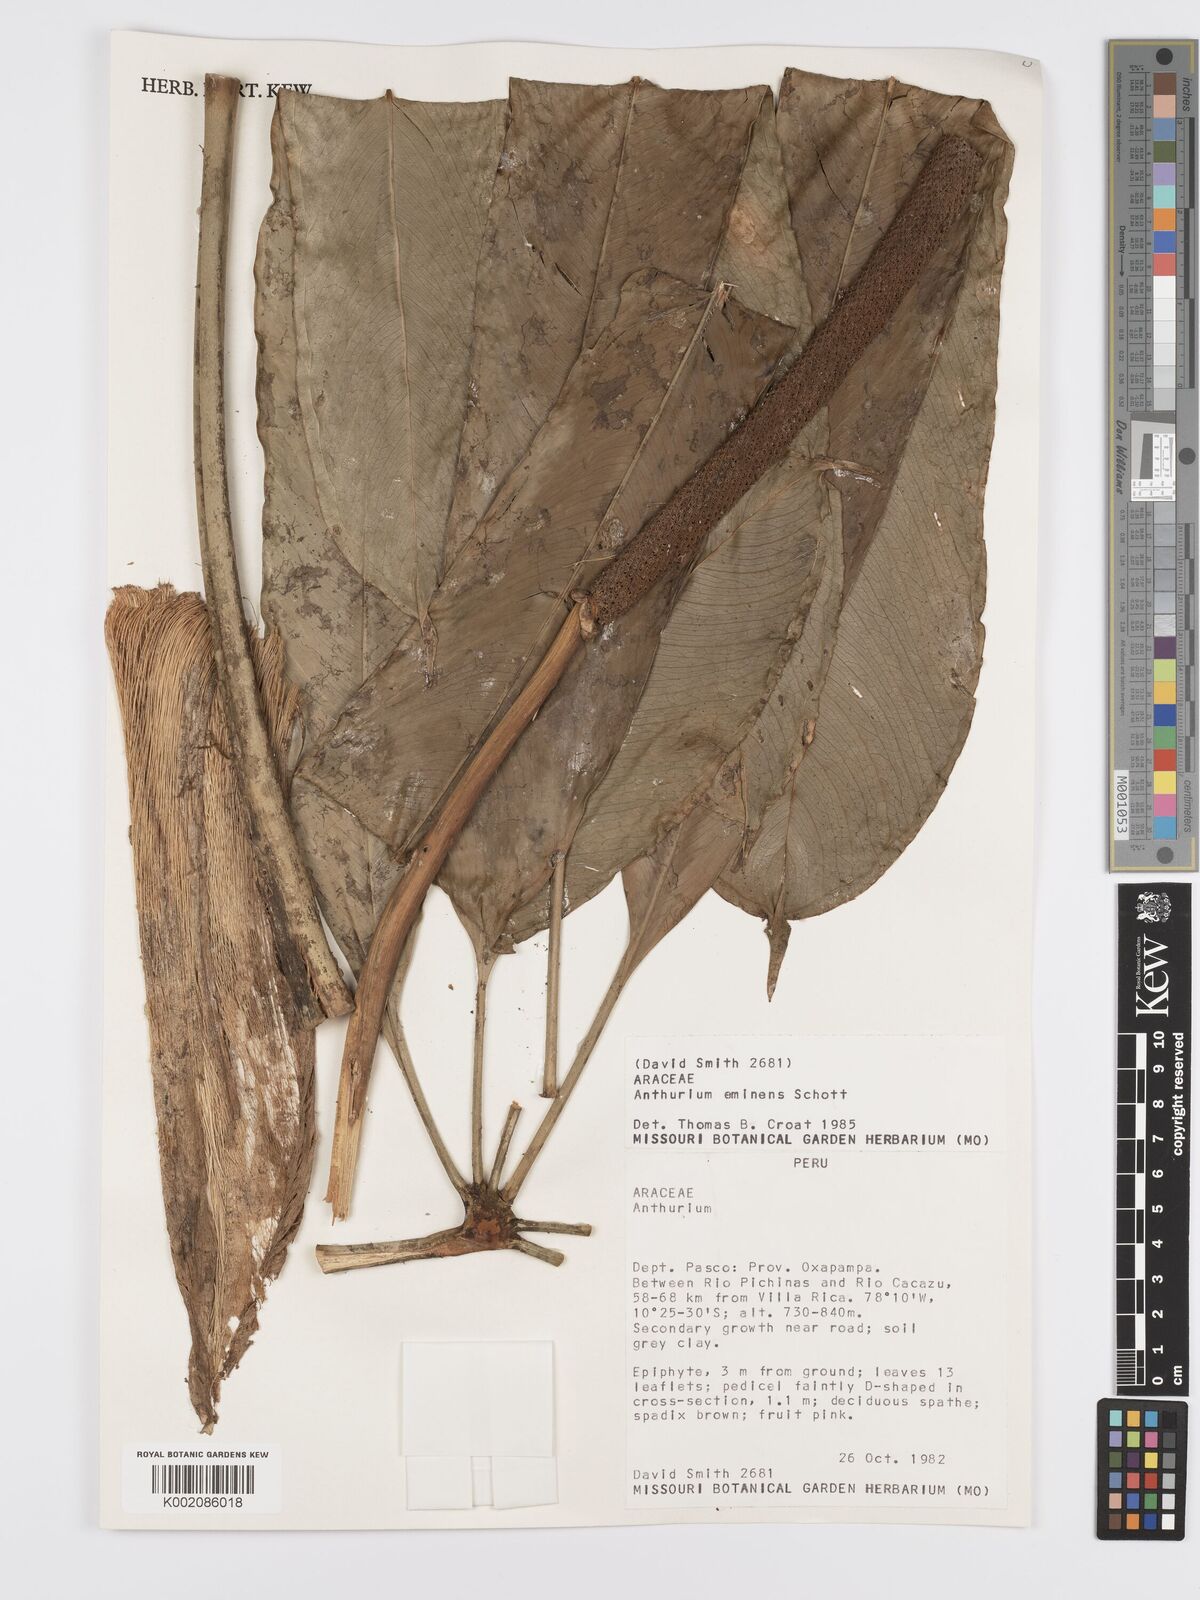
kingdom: Plantae
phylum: Tracheophyta
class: Liliopsida
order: Alismatales
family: Araceae
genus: Anthurium
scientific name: Anthurium eminens
